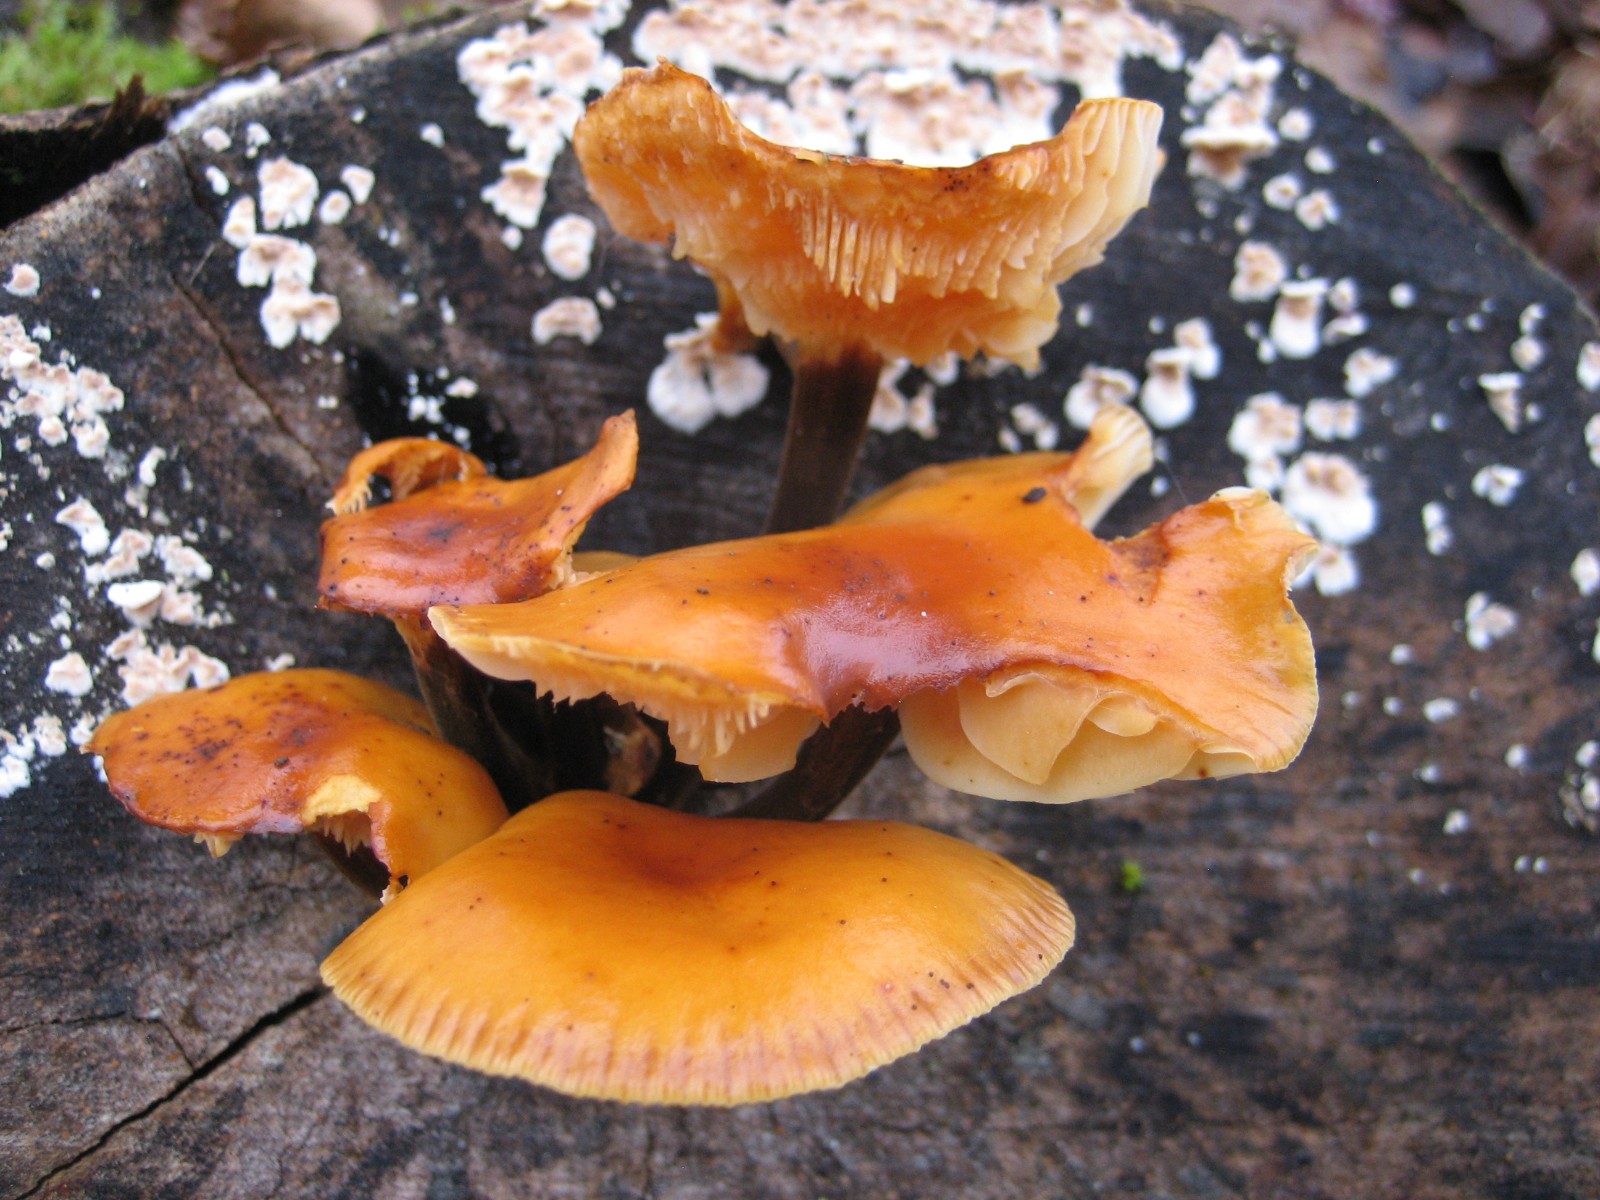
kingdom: Fungi
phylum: Basidiomycota
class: Agaricomycetes
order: Agaricales
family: Physalacriaceae
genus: Flammulina
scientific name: Flammulina velutipes
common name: gul fløjlsfod
